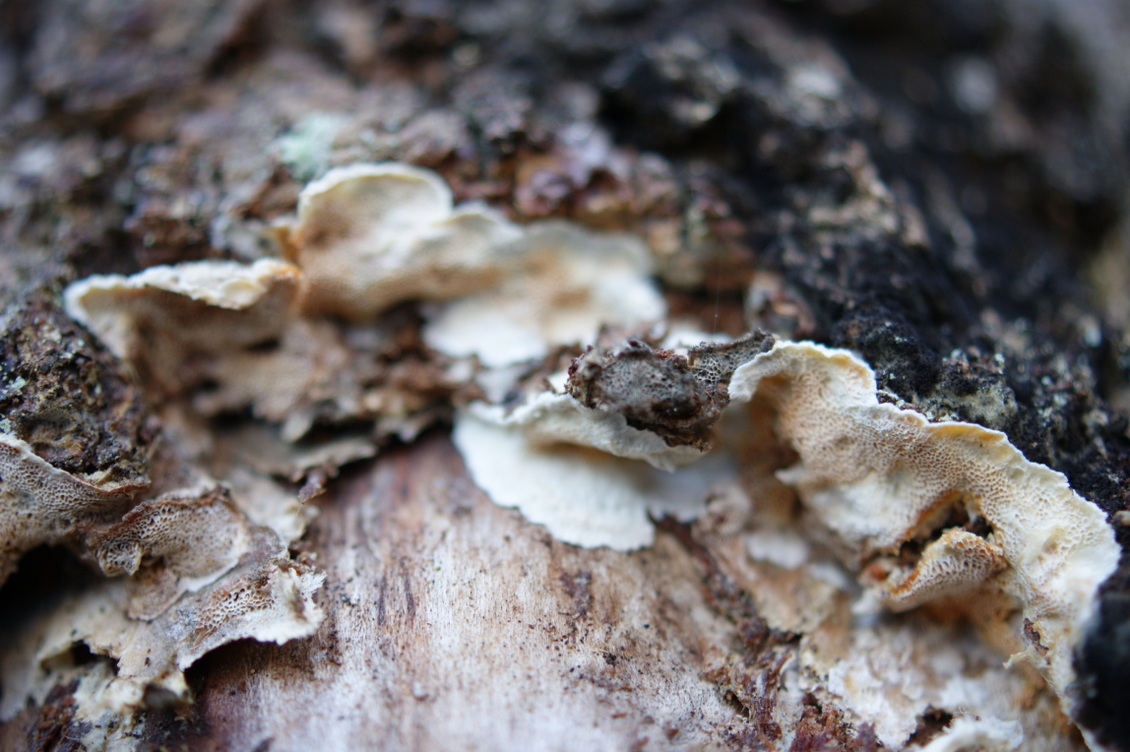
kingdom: Fungi
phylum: Basidiomycota
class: Agaricomycetes
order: Polyporales
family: Incrustoporiaceae
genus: Skeletocutis
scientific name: Skeletocutis amorpha
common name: orange krystalporesvamp
